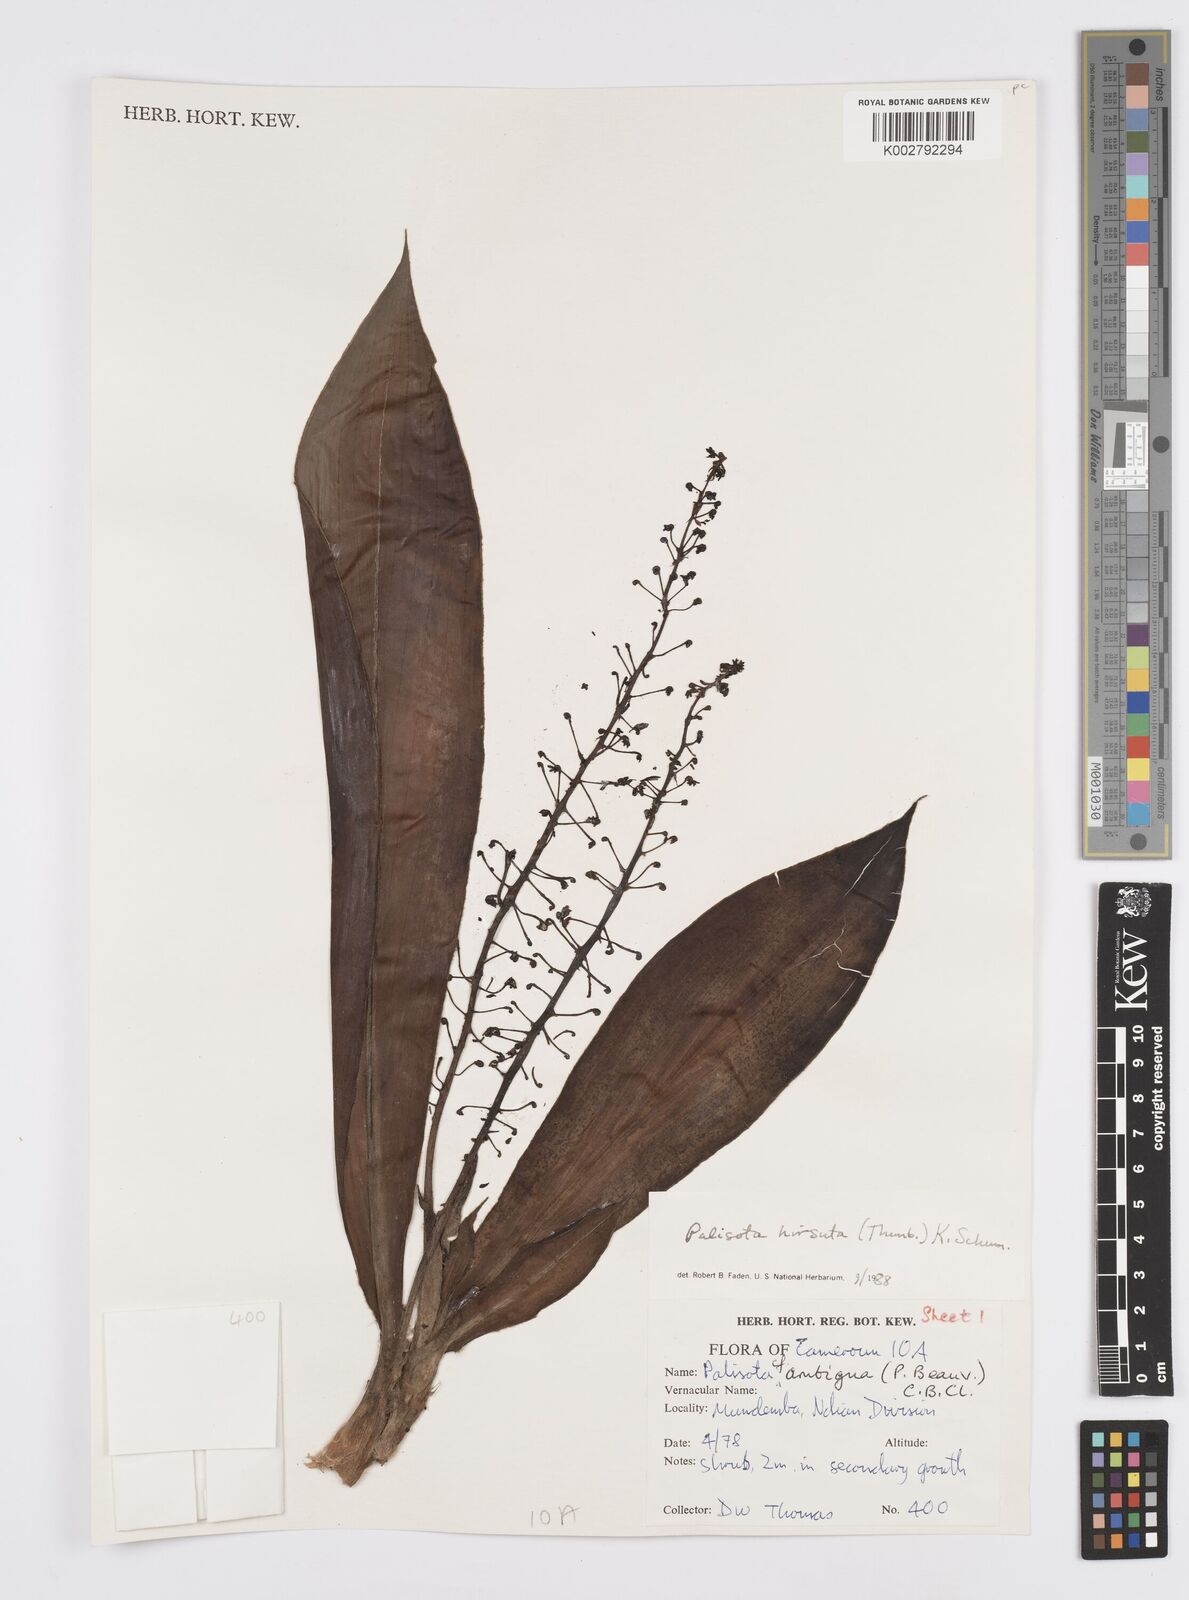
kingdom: Plantae
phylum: Tracheophyta
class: Liliopsida
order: Commelinales
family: Commelinaceae
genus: Palisota
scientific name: Palisota hirsuta
